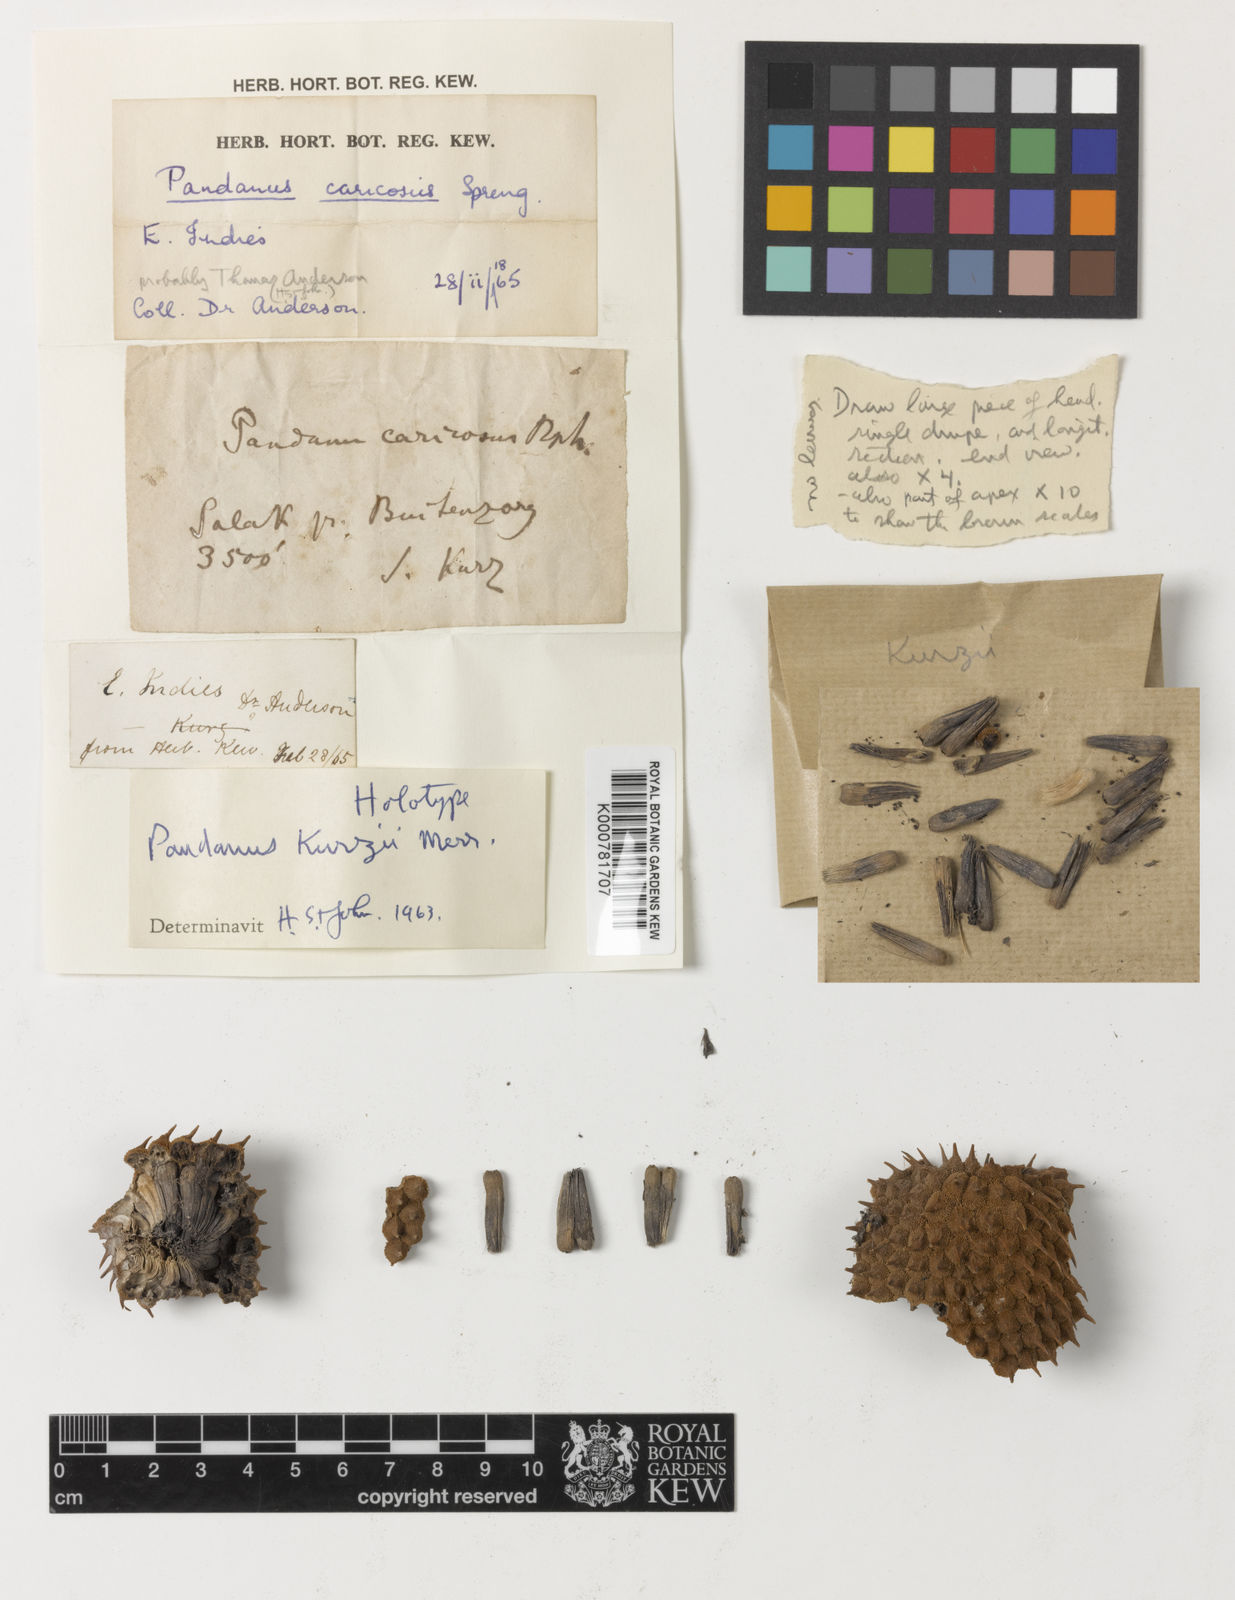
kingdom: Plantae
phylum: Tracheophyta
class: Liliopsida
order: Pandanales
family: Pandanaceae
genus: Benstonea
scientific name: Benstonea kurzii
